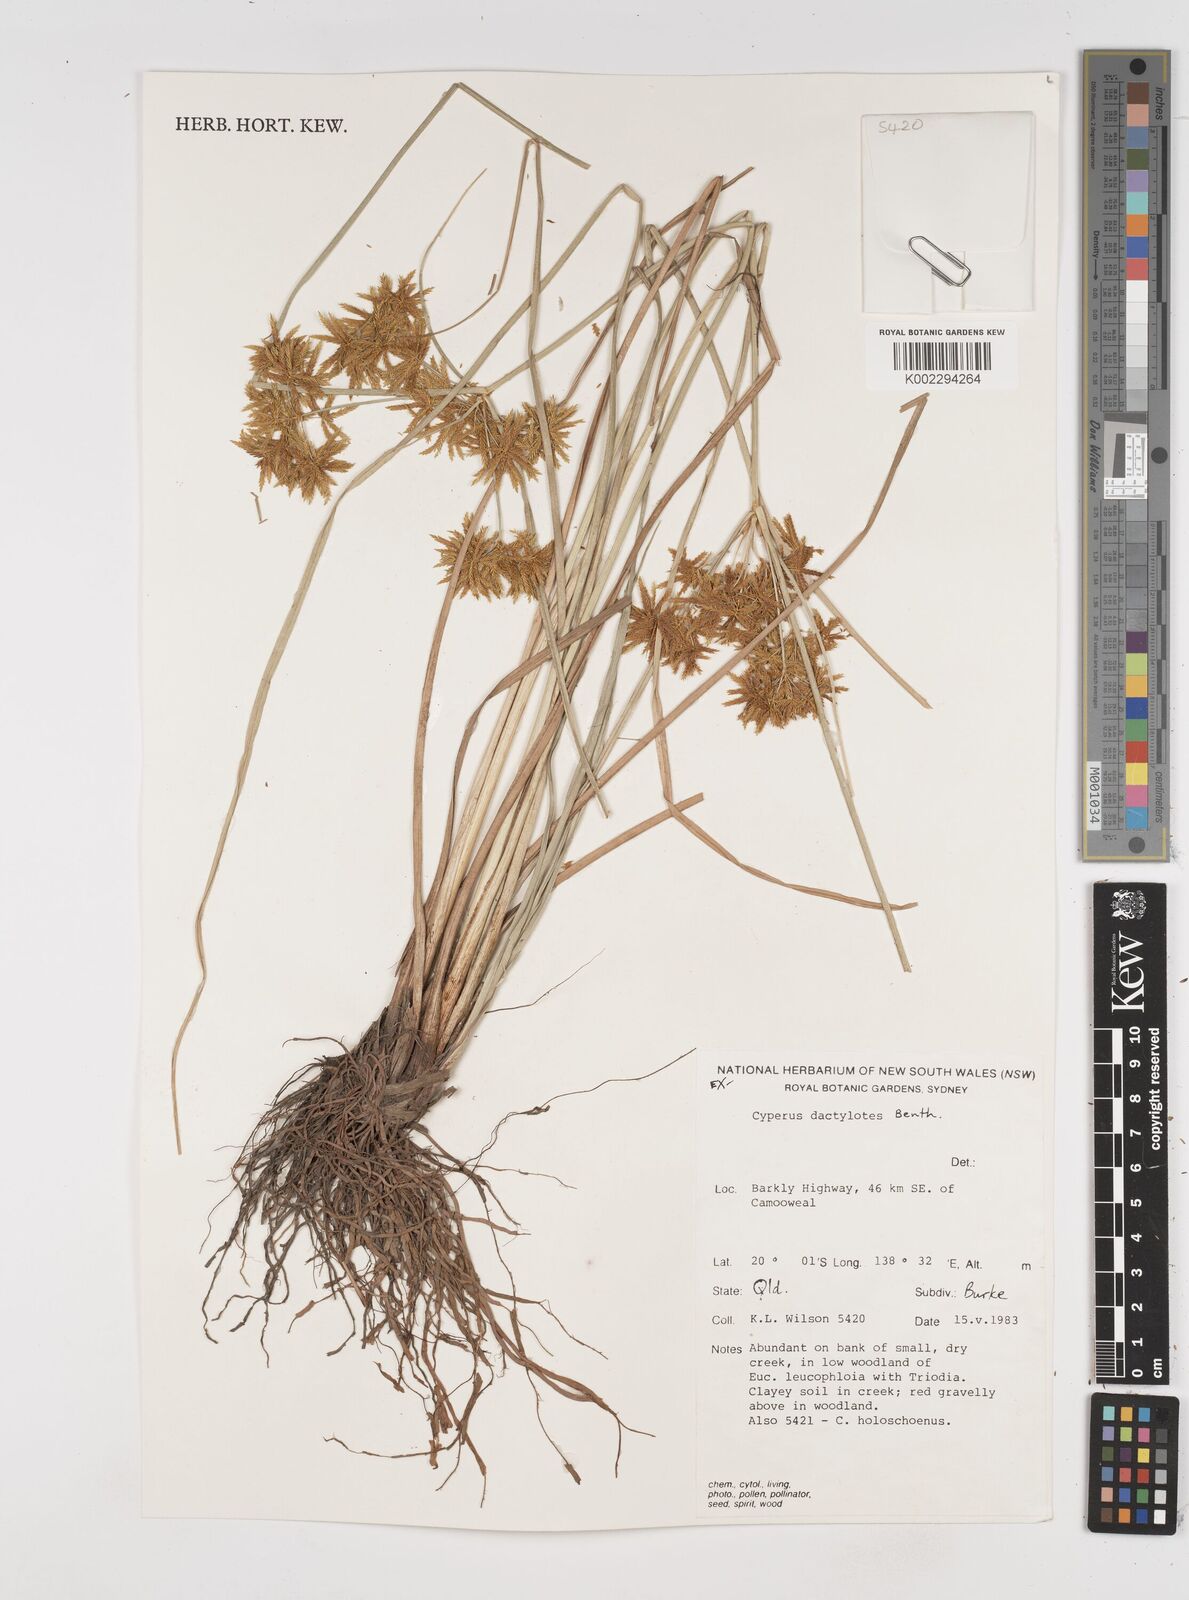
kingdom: Plantae
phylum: Tracheophyta
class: Liliopsida
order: Poales
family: Cyperaceae
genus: Cyperus
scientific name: Cyperus dactylotes
